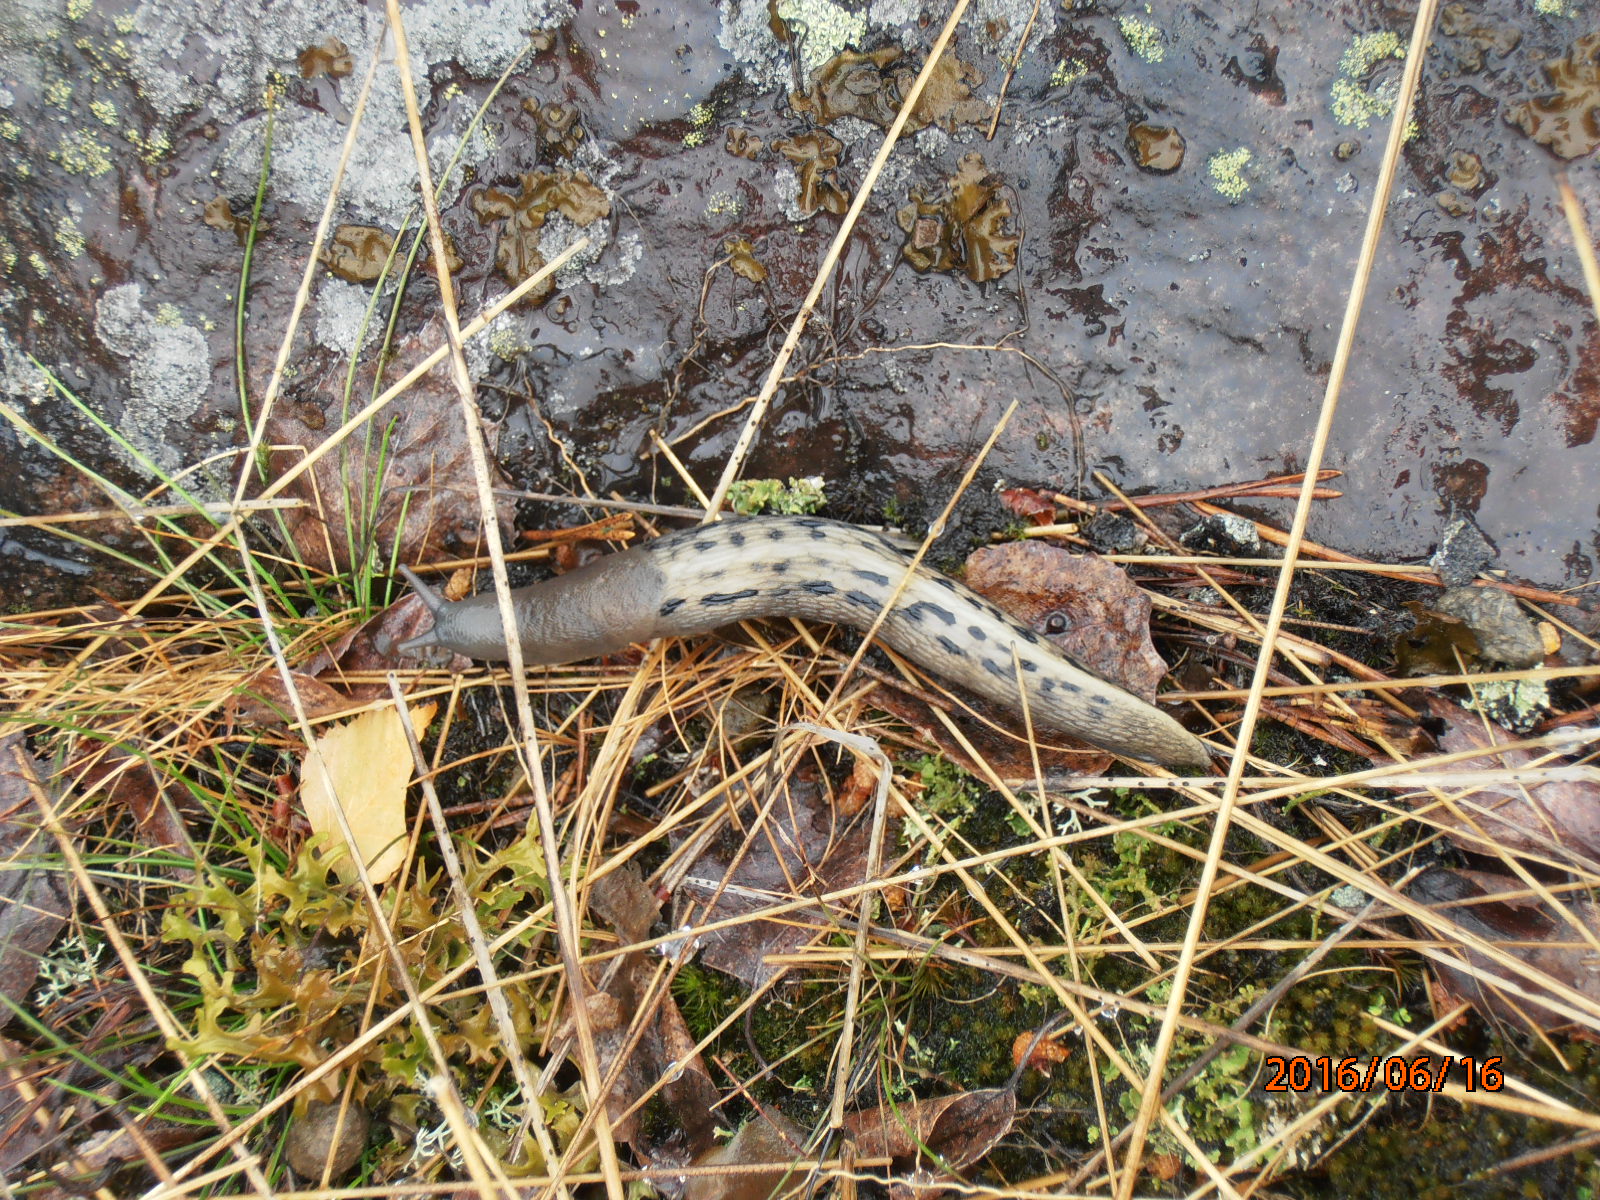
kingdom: Animalia
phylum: Mollusca
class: Gastropoda
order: Stylommatophora
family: Limacidae
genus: Limax
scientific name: Limax cinereoniger
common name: Ash-black slug
